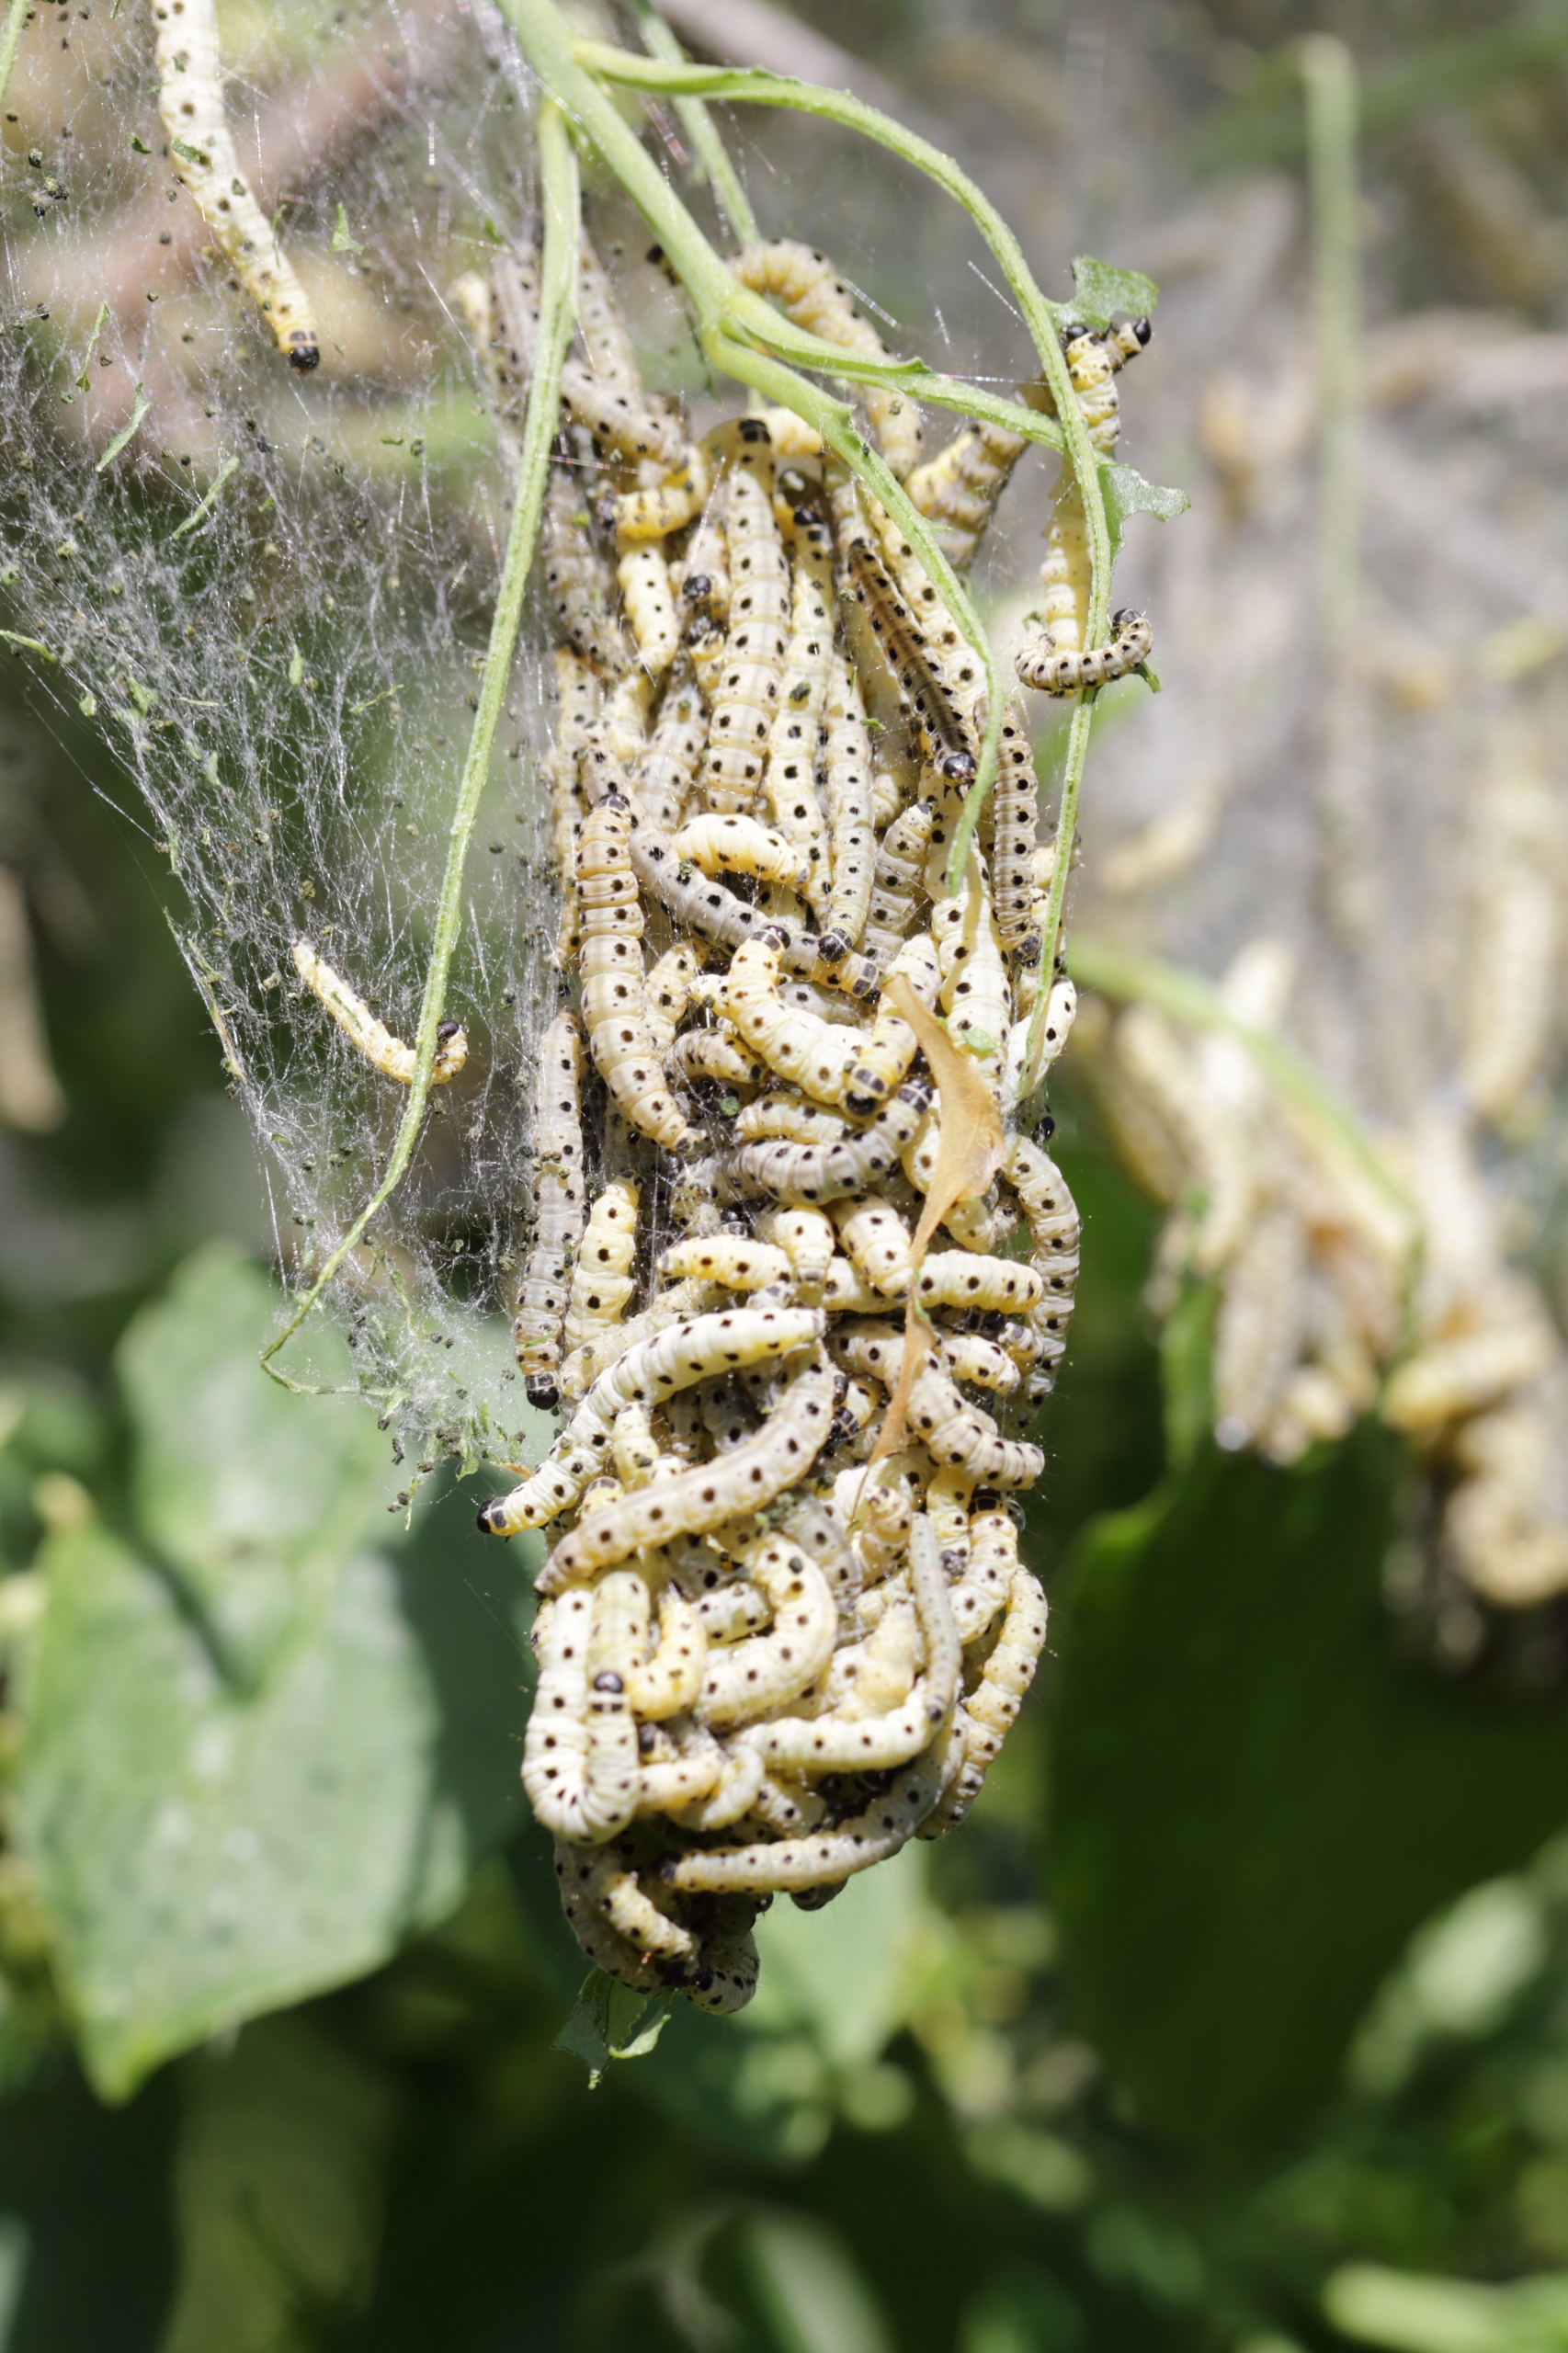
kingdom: Animalia
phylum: Arthropoda
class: Insecta
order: Lepidoptera
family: Yponomeutidae
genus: Yponomeuta
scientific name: Yponomeuta evonymella
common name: Hægspindemøl
